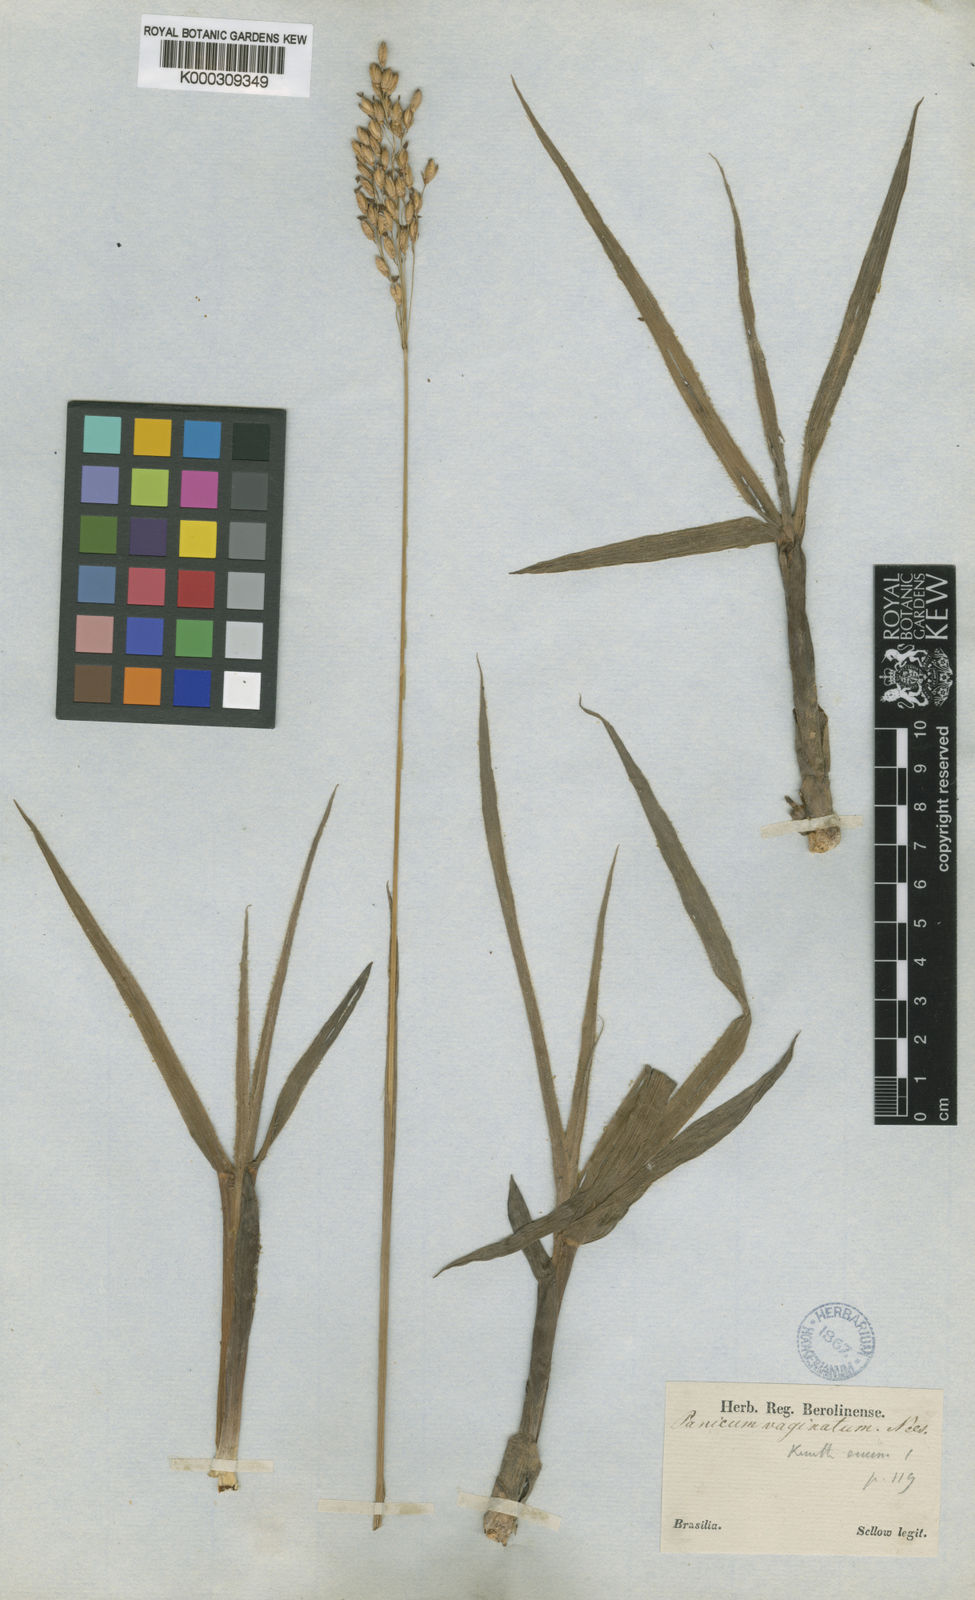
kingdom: Plantae
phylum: Tracheophyta
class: Liliopsida
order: Poales
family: Poaceae
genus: Oncorachis
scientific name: Oncorachis macrantha
